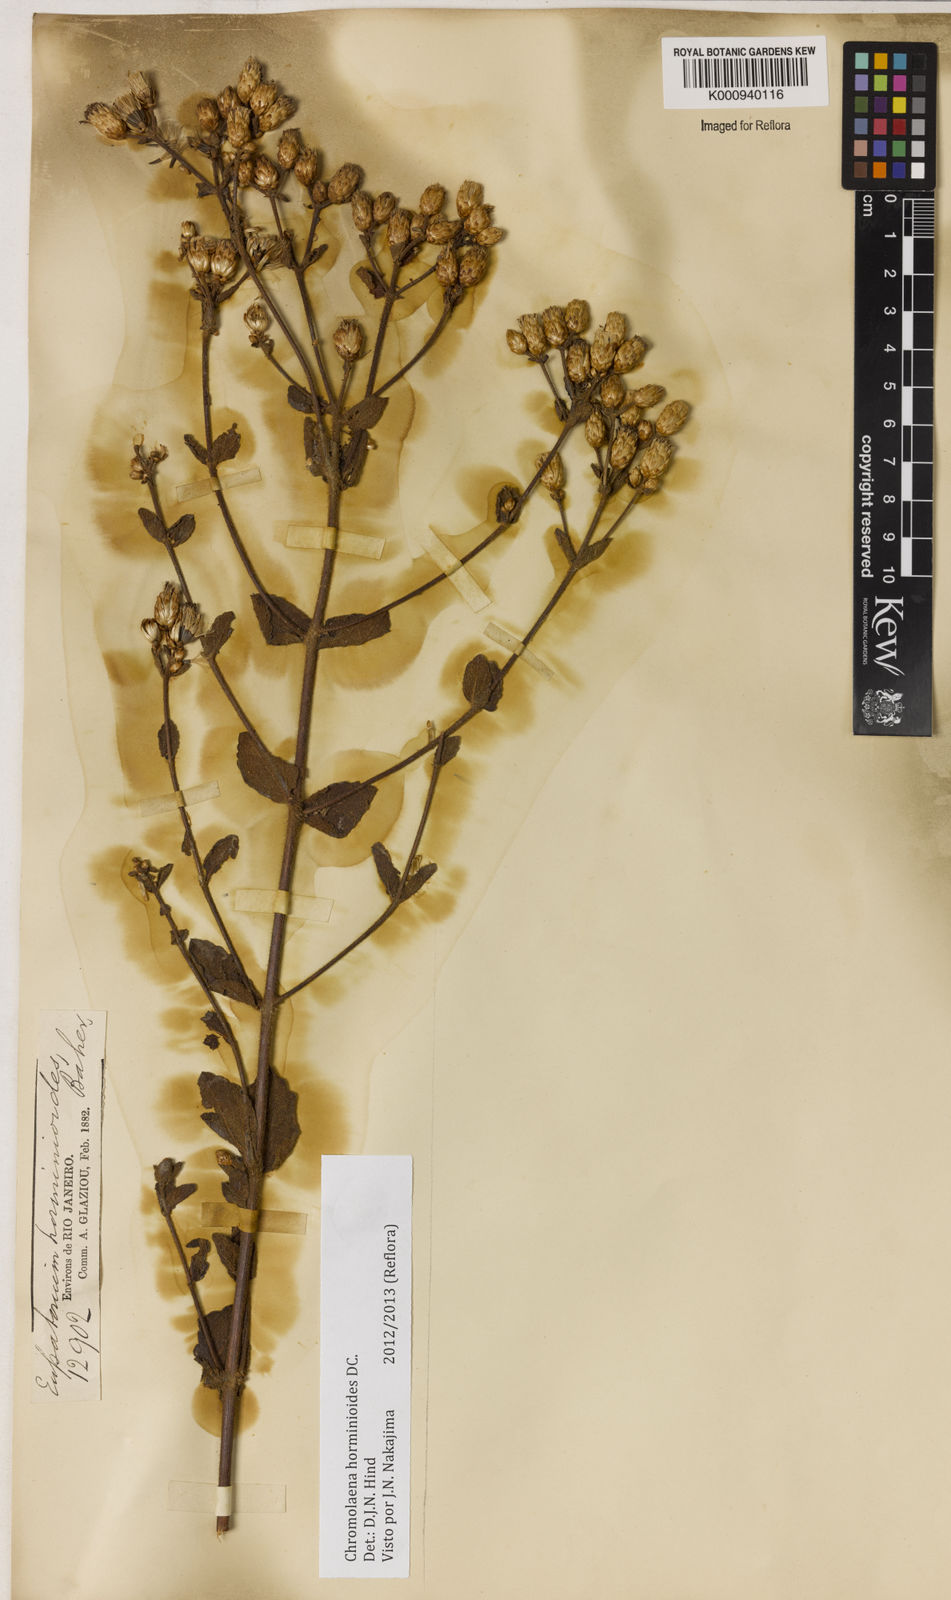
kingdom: Plantae
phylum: Tracheophyta
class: Magnoliopsida
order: Asterales
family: Asteraceae
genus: Chromolaena
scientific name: Chromolaena horminoides
